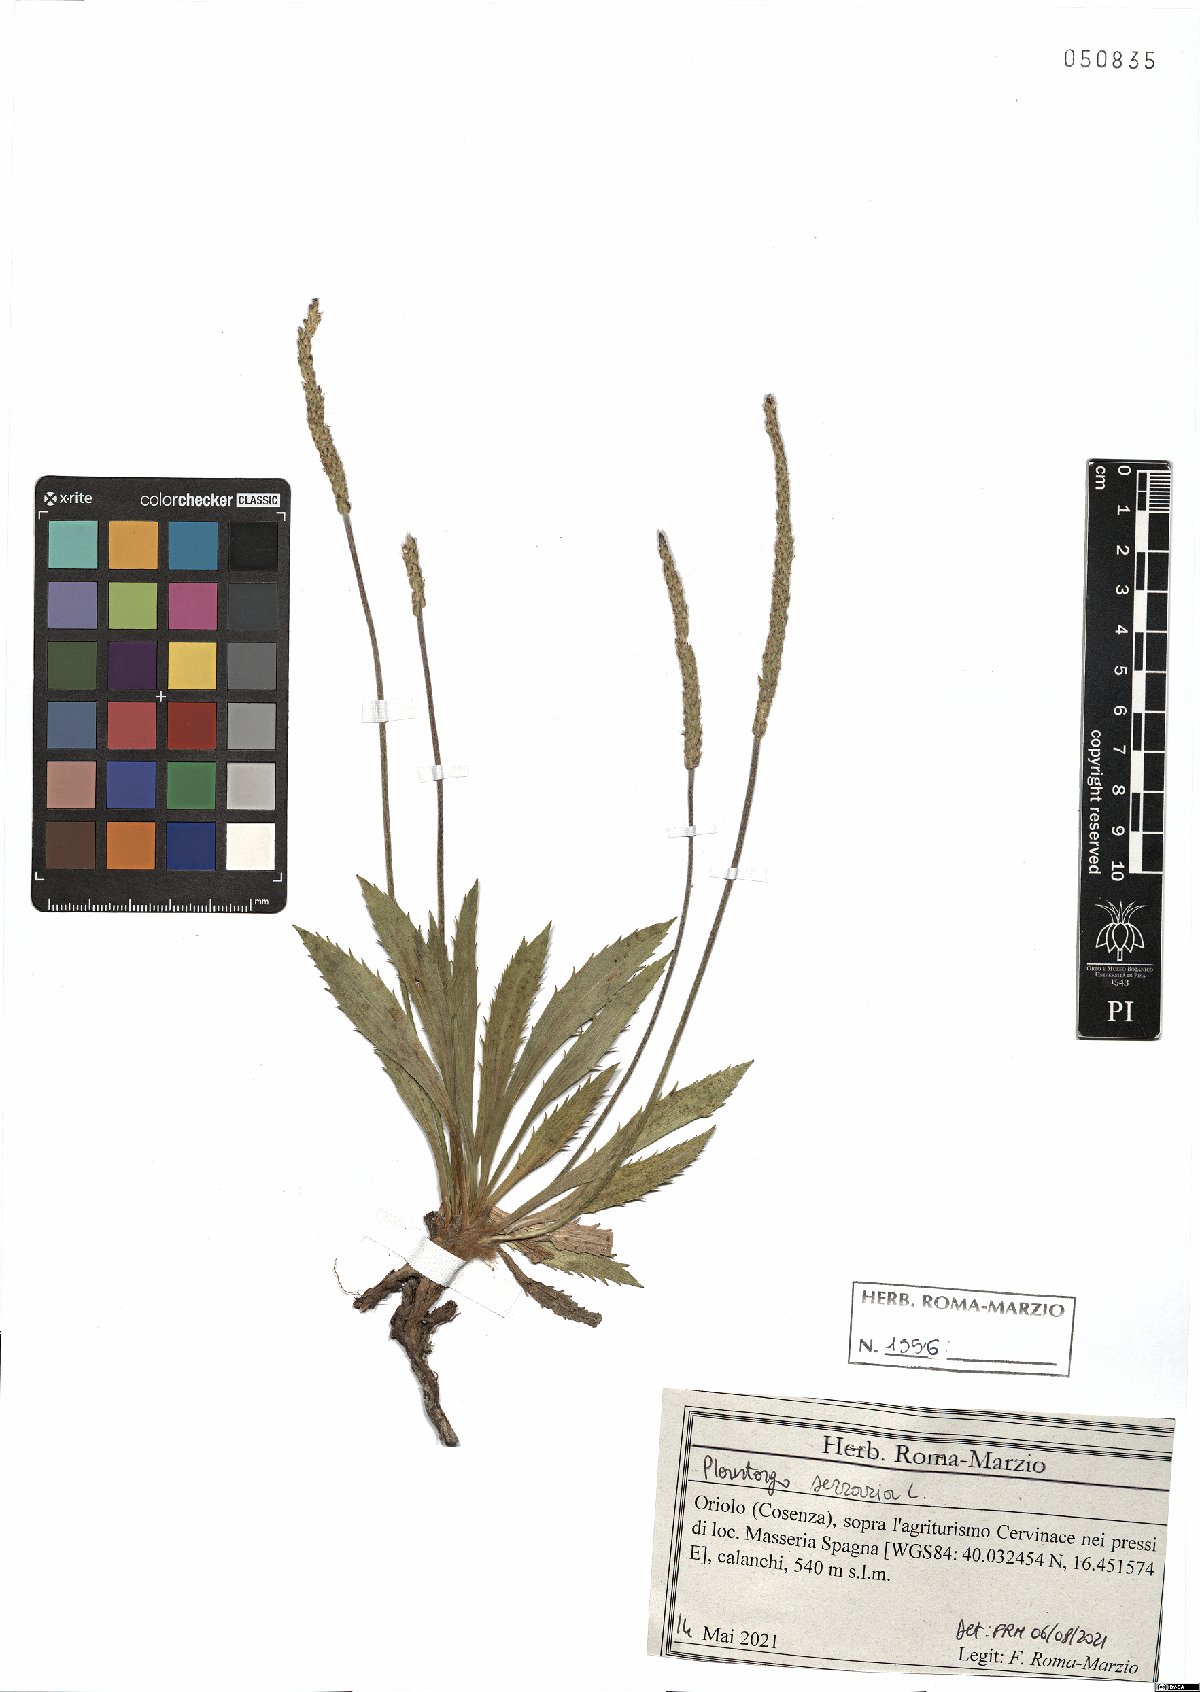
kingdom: Plantae
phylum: Tracheophyta
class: Magnoliopsida
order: Lamiales
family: Plantaginaceae
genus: Plantago
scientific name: Plantago serraria
